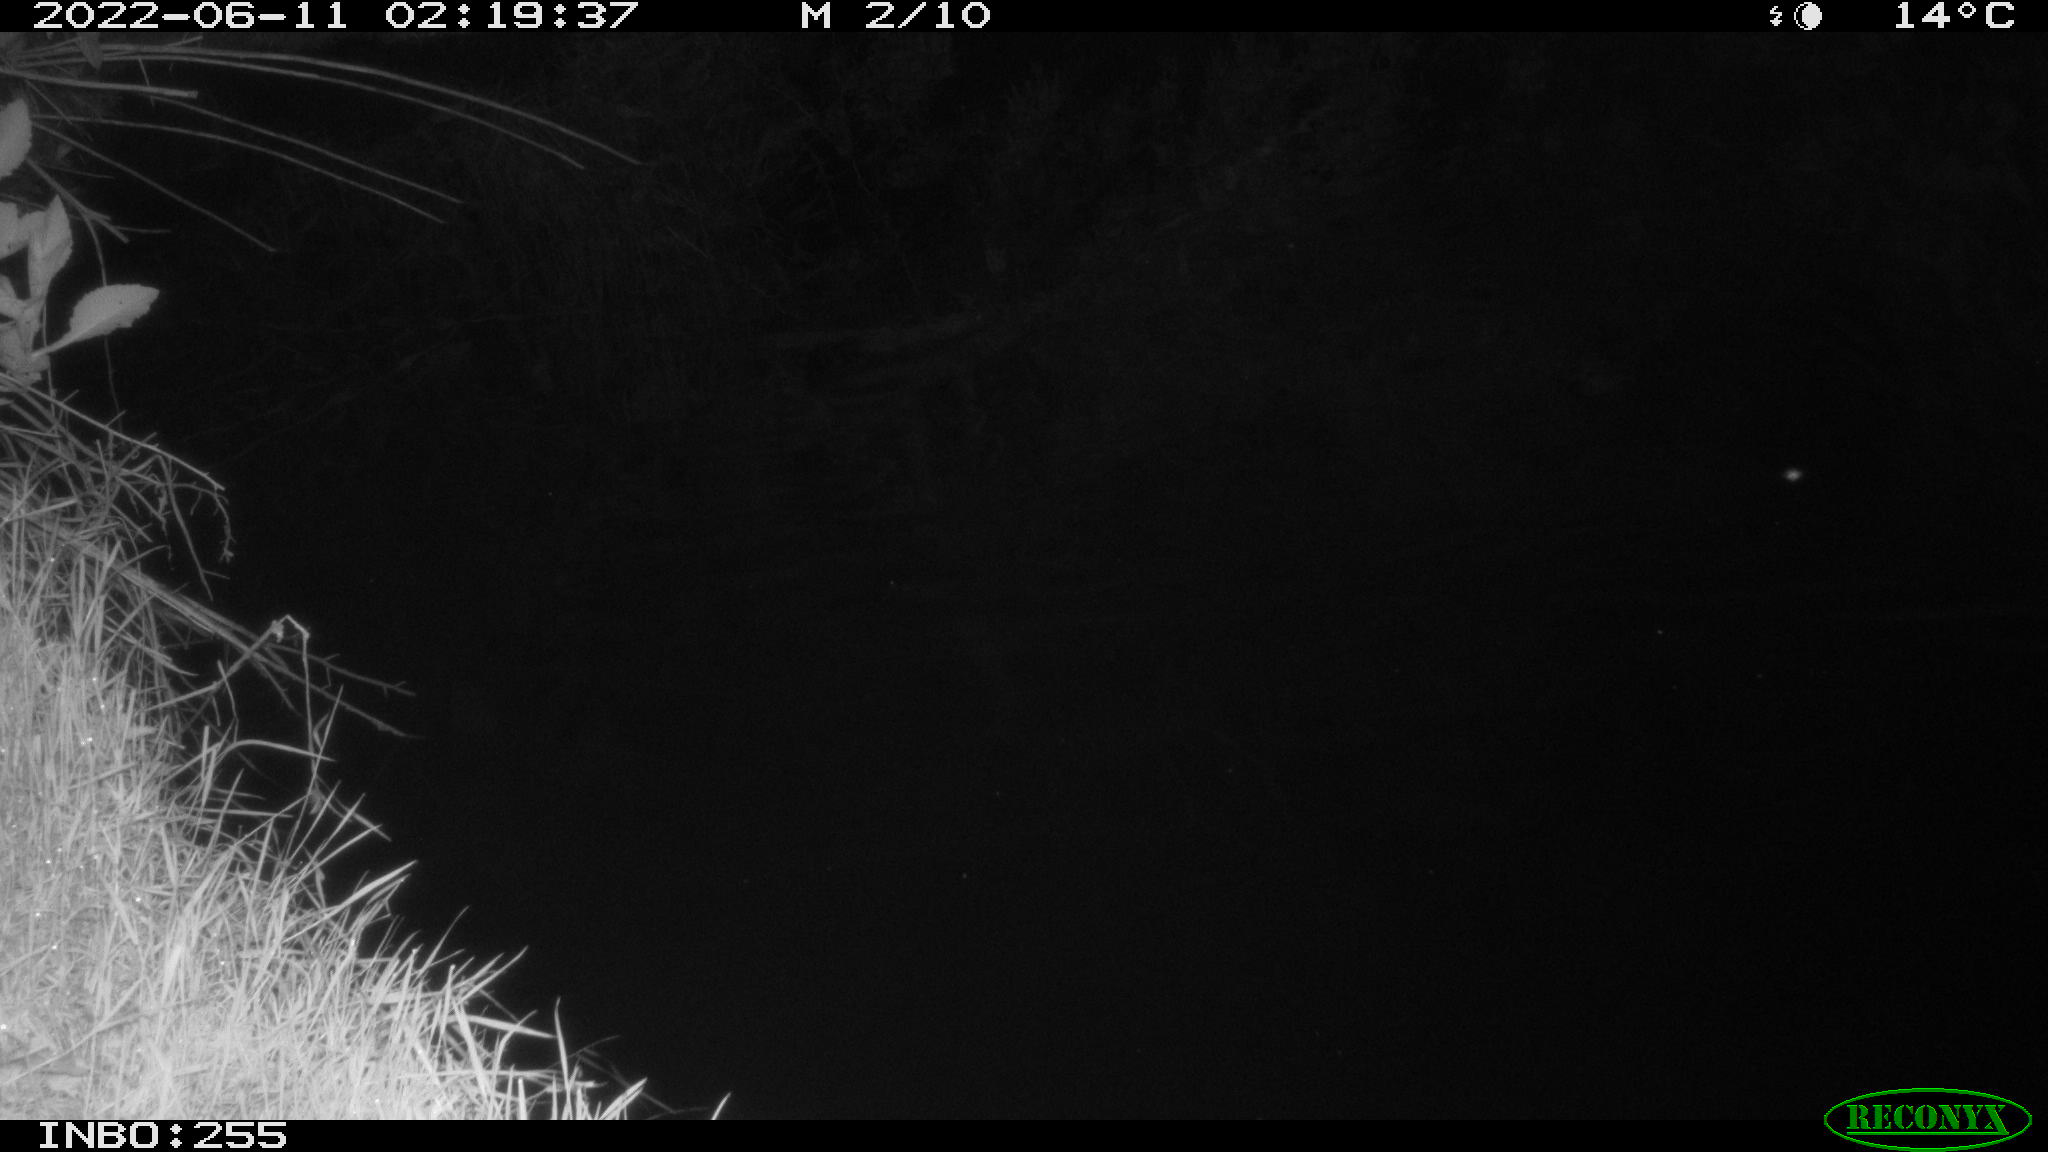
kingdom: Animalia
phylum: Chordata
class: Aves
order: Anseriformes
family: Anatidae
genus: Anas
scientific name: Anas platyrhynchos
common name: Mallard
